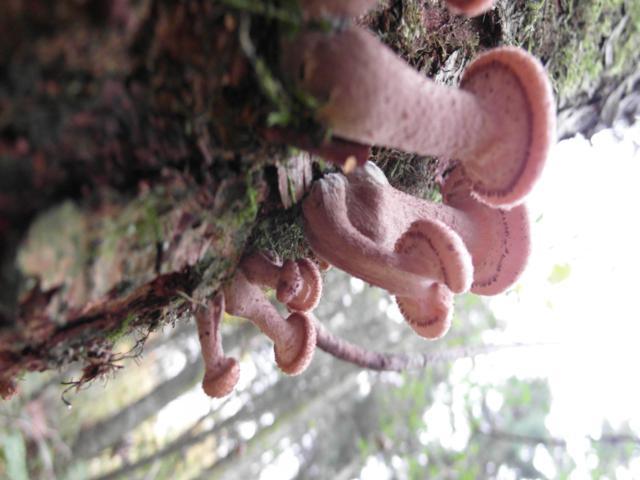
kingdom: Fungi
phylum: Basidiomycota
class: Agaricomycetes
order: Agaricales
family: Physalacriaceae
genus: Armillaria
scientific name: Armillaria lutea
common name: køllestokket honningsvamp
